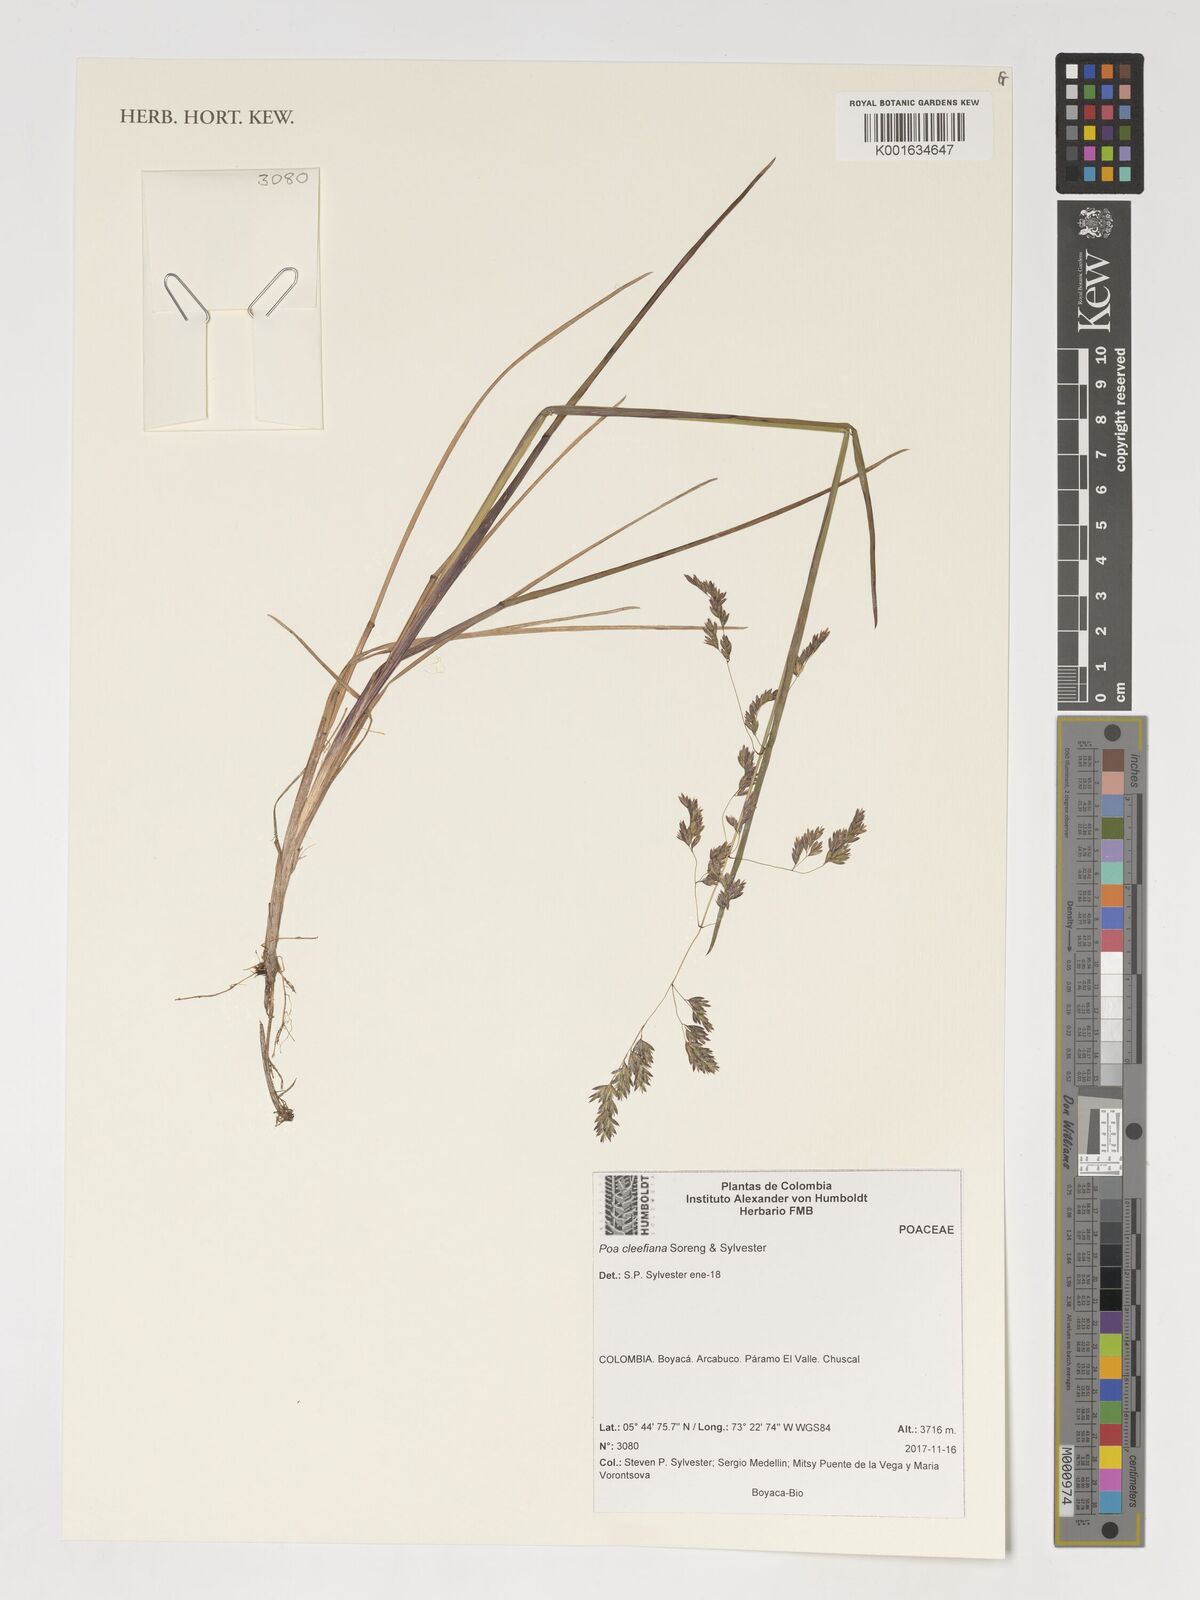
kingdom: Plantae
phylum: Tracheophyta
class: Liliopsida
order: Poales
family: Poaceae
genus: Poa
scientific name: Poa
